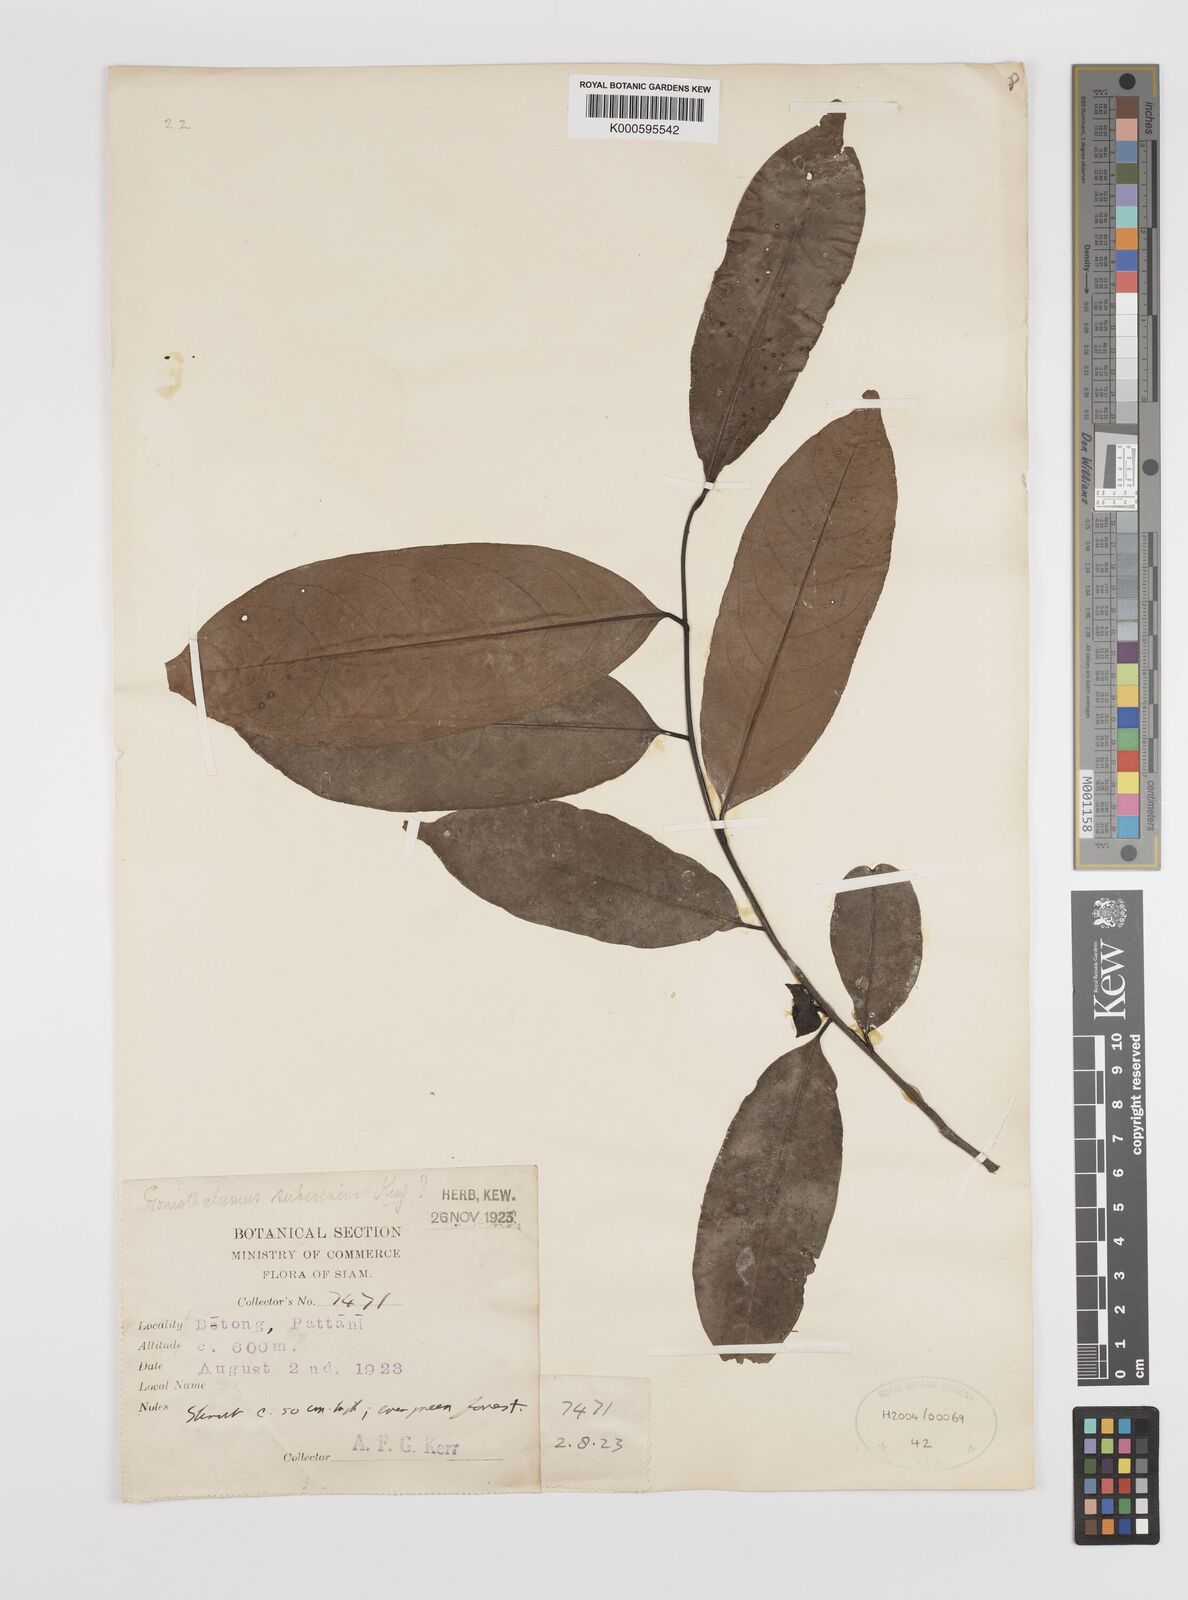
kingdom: Plantae
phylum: Tracheophyta
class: Magnoliopsida
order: Magnoliales
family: Annonaceae
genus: Goniothalamus
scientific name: Goniothalamus subevenius
